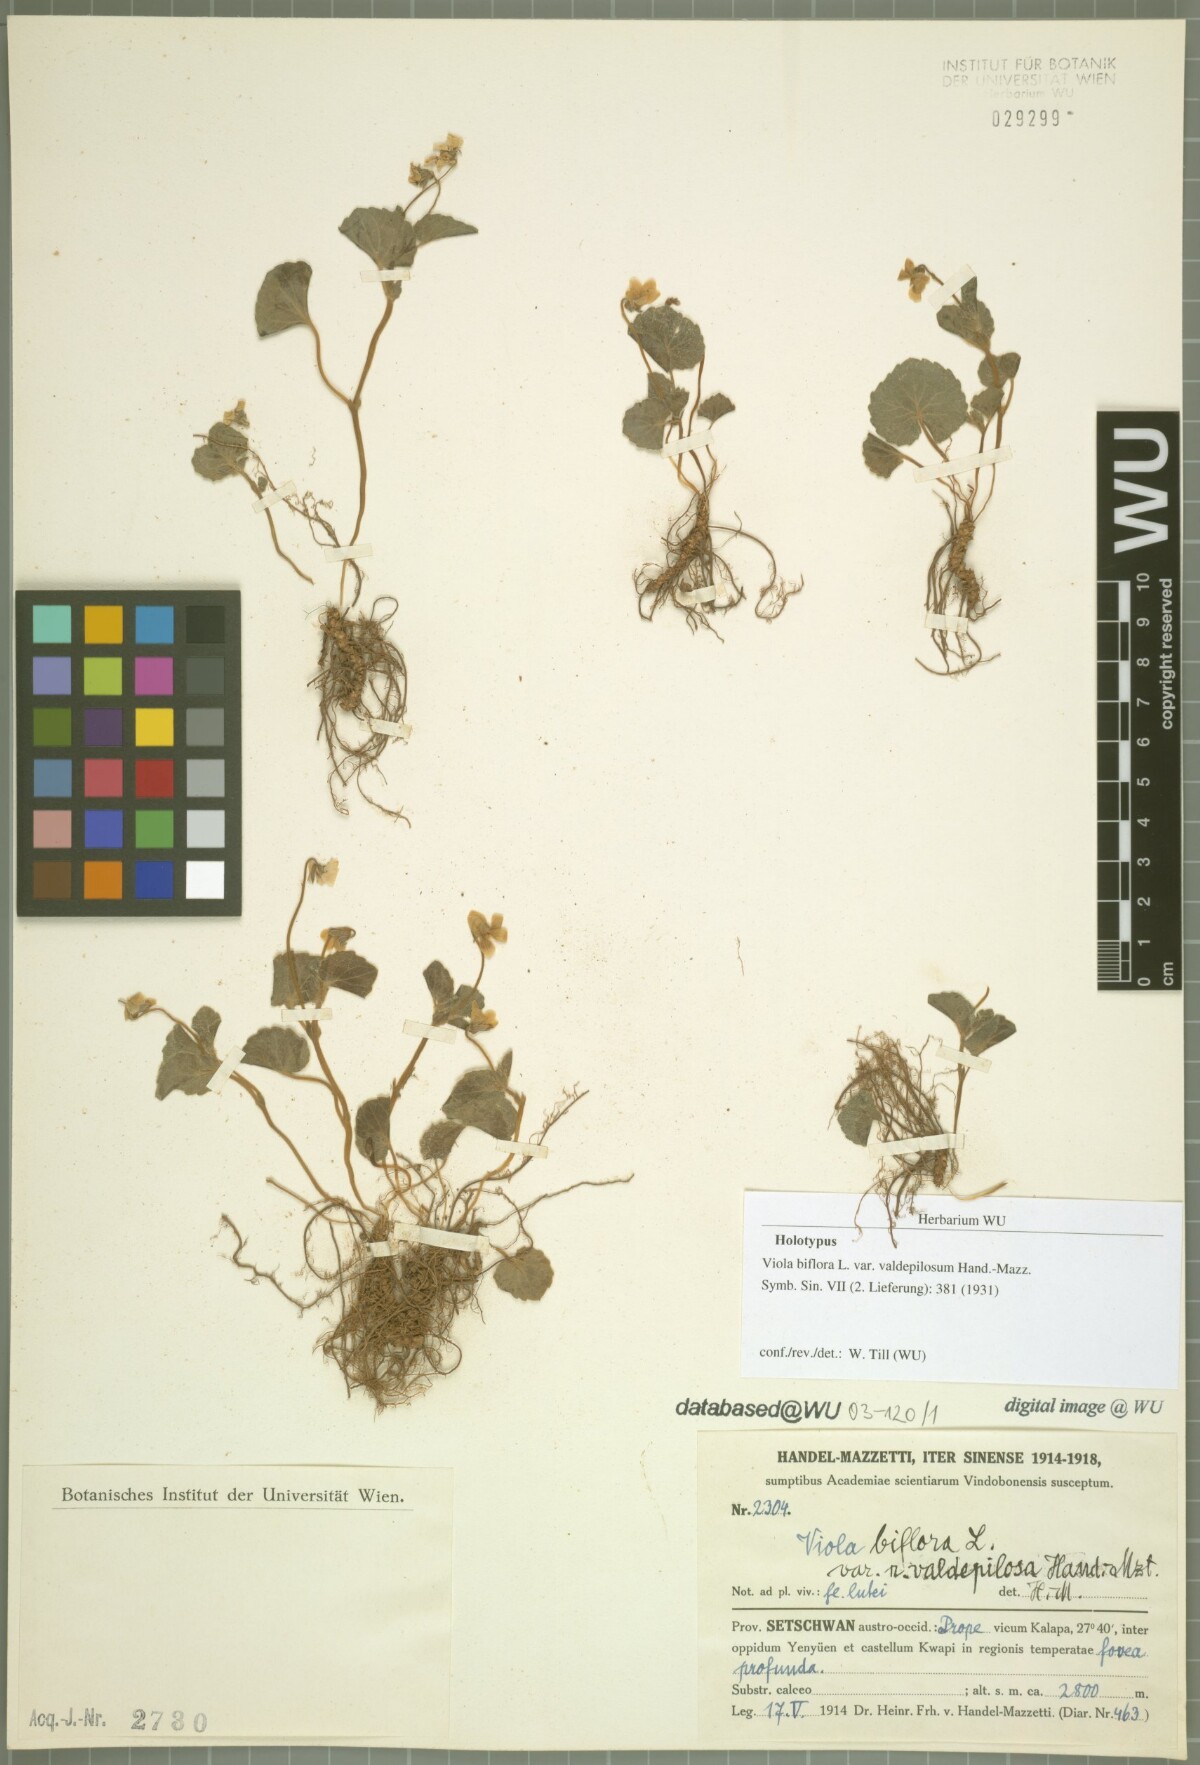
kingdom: Plantae
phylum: Tracheophyta
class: Magnoliopsida
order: Malpighiales
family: Violaceae
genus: Viola
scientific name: Viola biflora
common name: Alpine yellow violet
